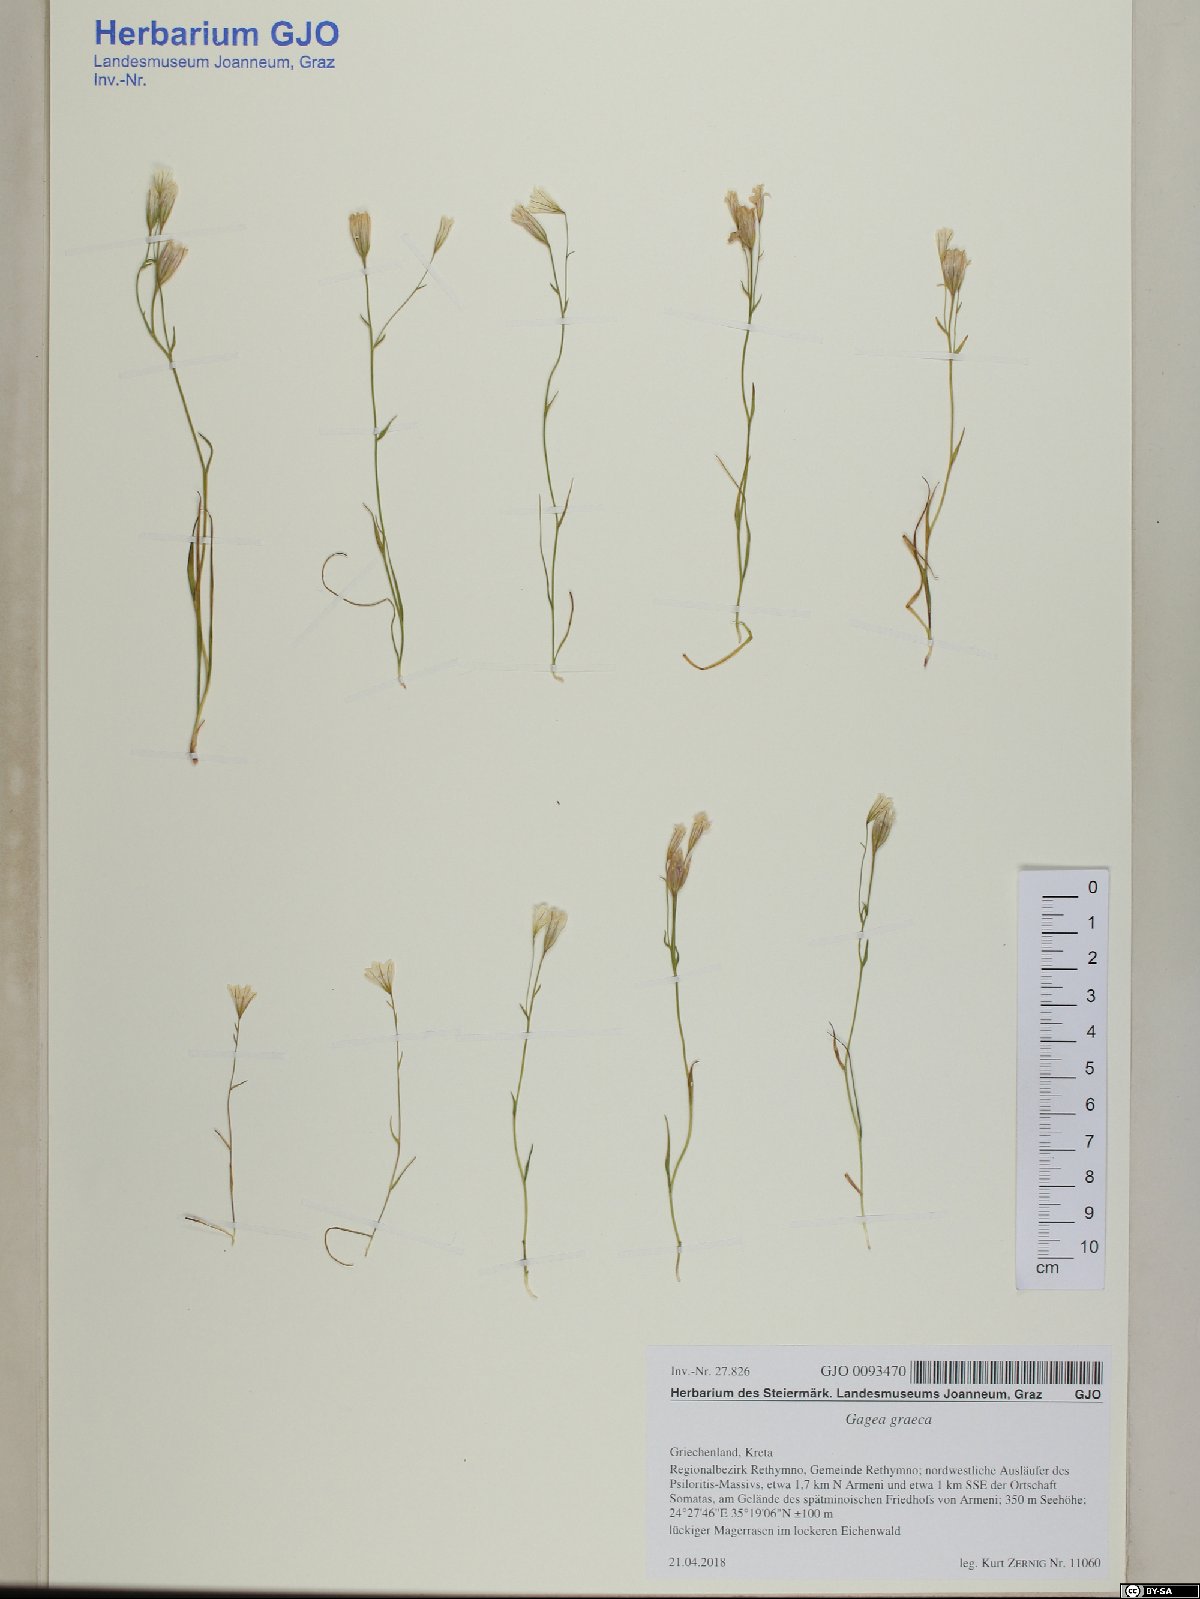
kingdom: Plantae
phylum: Tracheophyta
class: Liliopsida
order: Liliales
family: Liliaceae
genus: Gagea
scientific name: Gagea graeca
